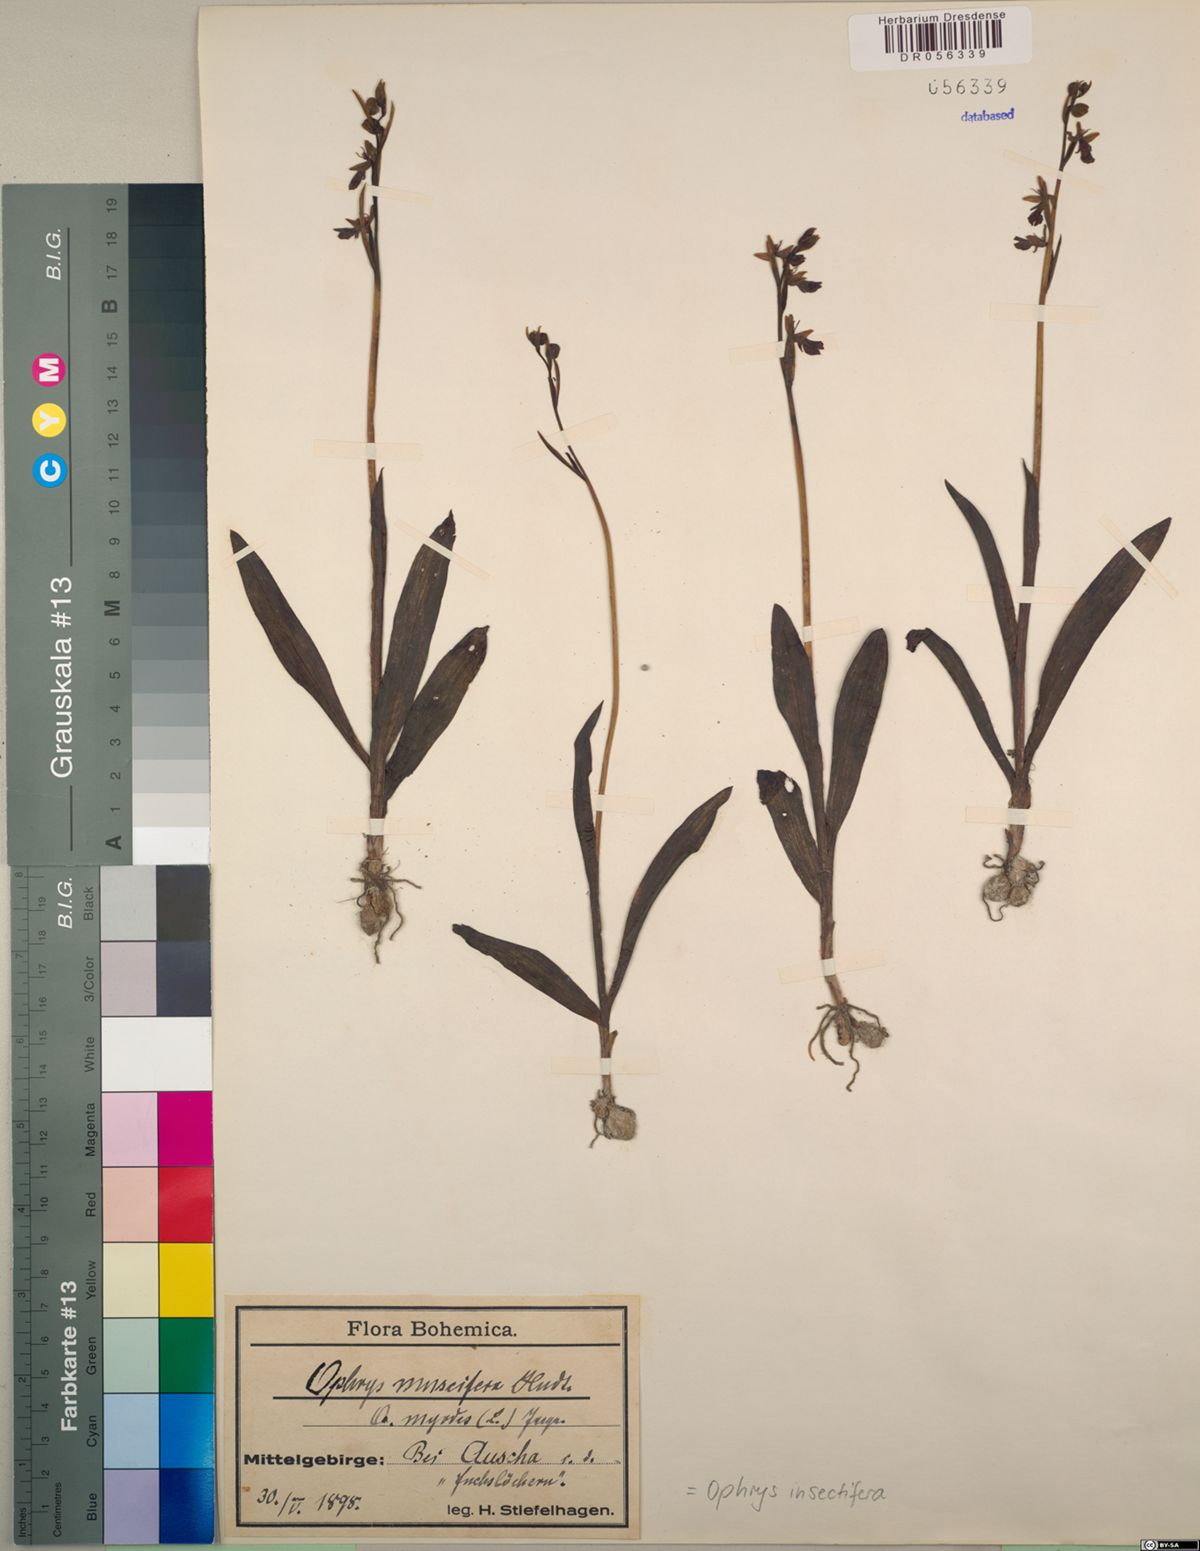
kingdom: Plantae
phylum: Tracheophyta
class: Liliopsida
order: Asparagales
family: Orchidaceae
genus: Ophrys
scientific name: Ophrys insectifera
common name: Fly orchid
